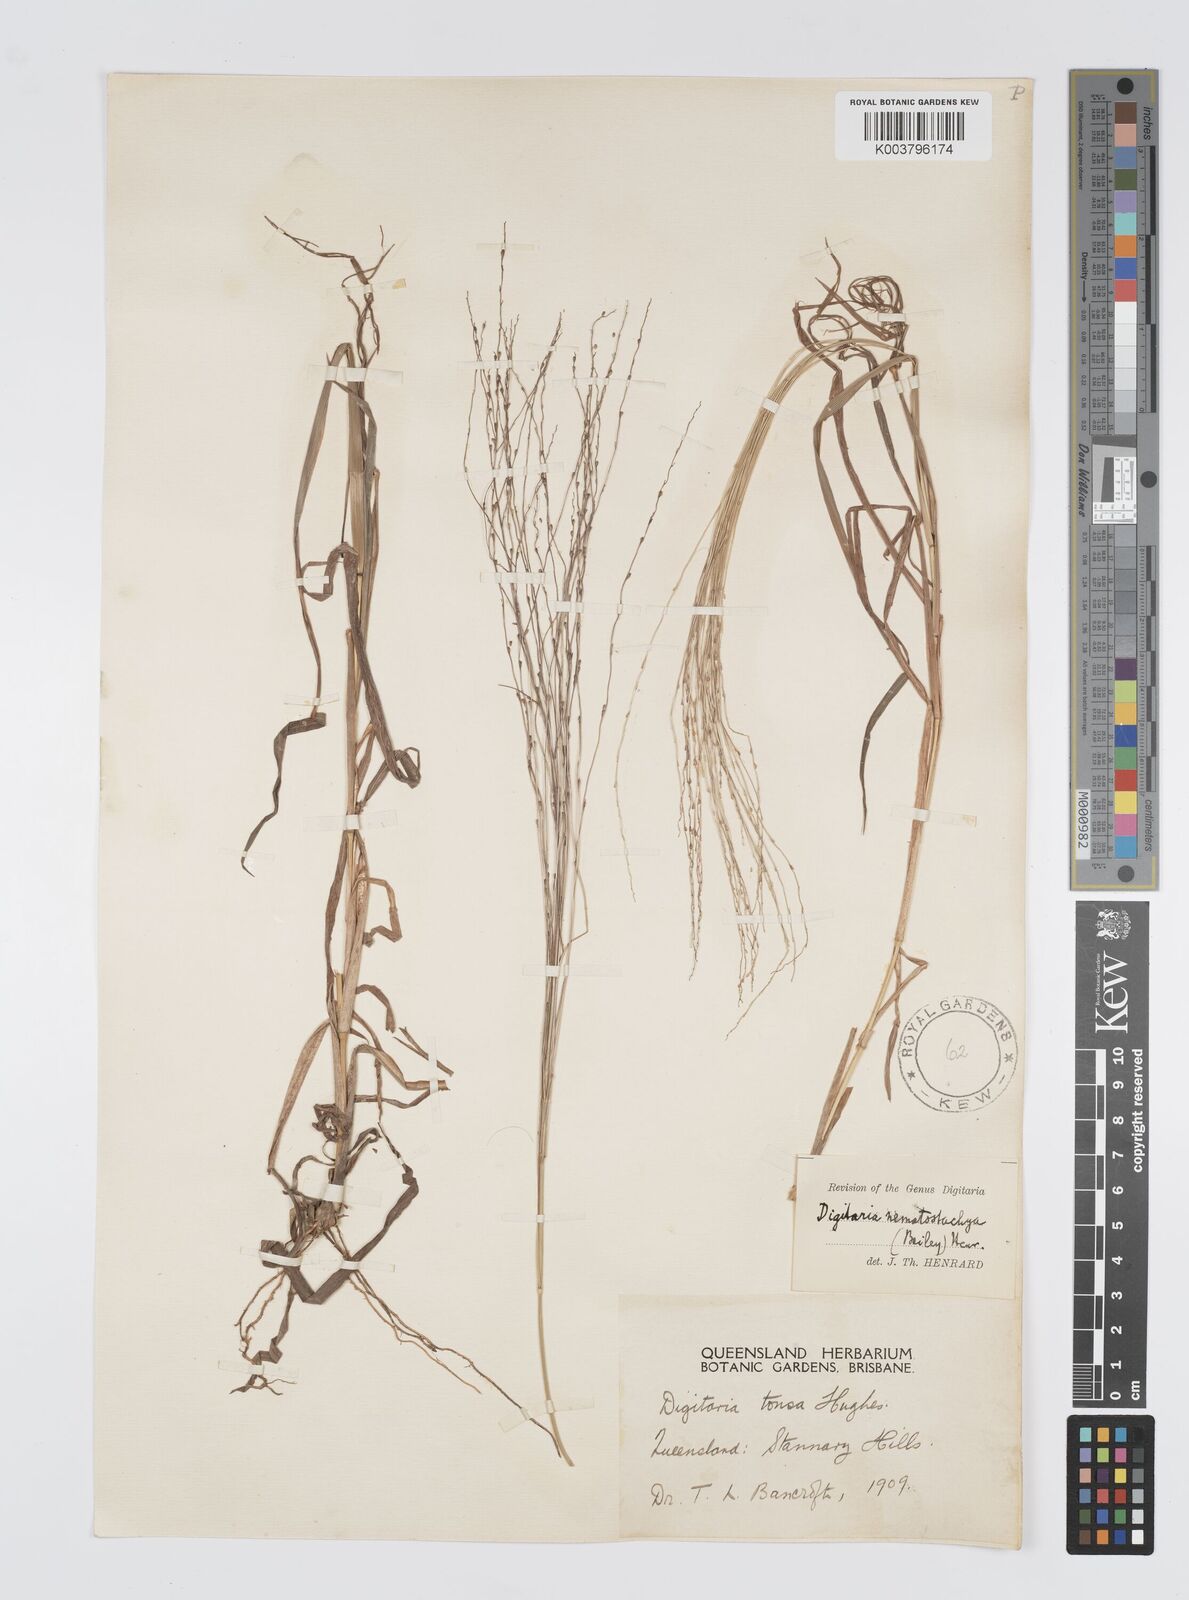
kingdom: Plantae
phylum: Tracheophyta
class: Liliopsida
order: Poales
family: Poaceae
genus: Digitaria
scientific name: Digitaria nematostachya
